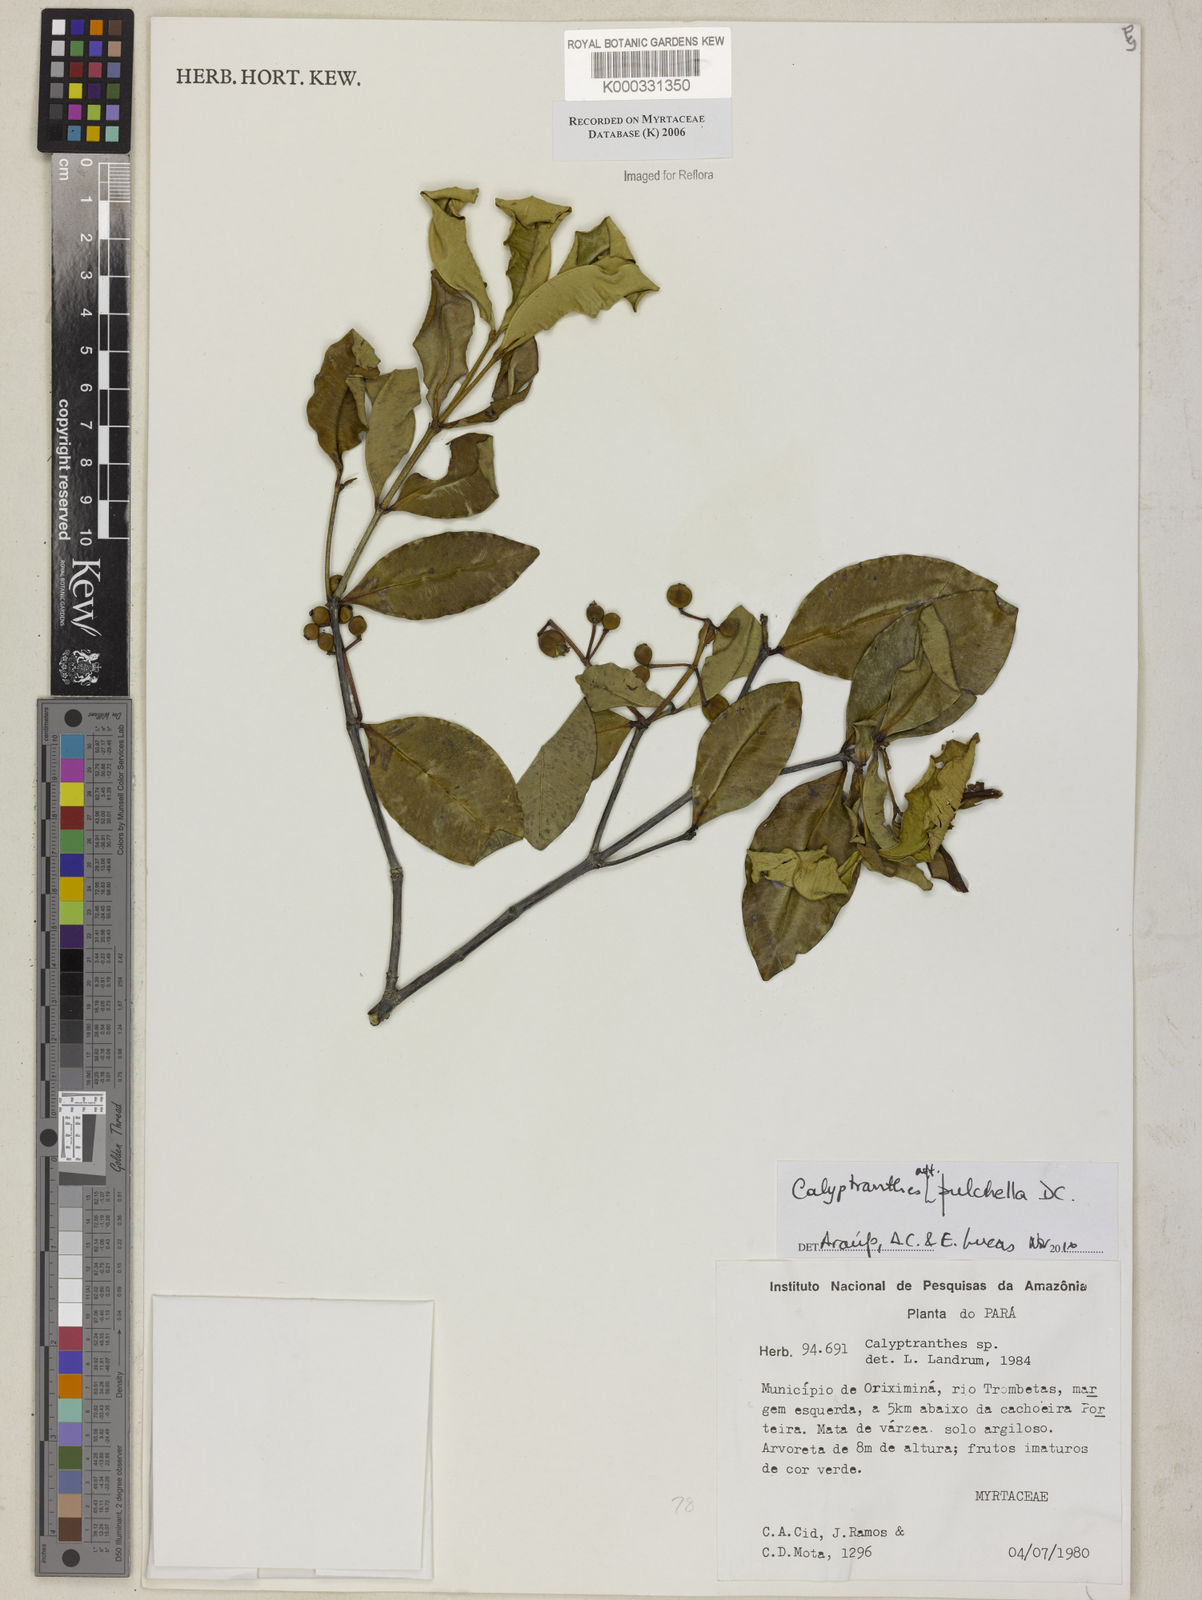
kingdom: Plantae
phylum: Tracheophyta
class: Magnoliopsida
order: Myrtales
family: Myrtaceae
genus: Calyptranthes
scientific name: Calyptranthes
